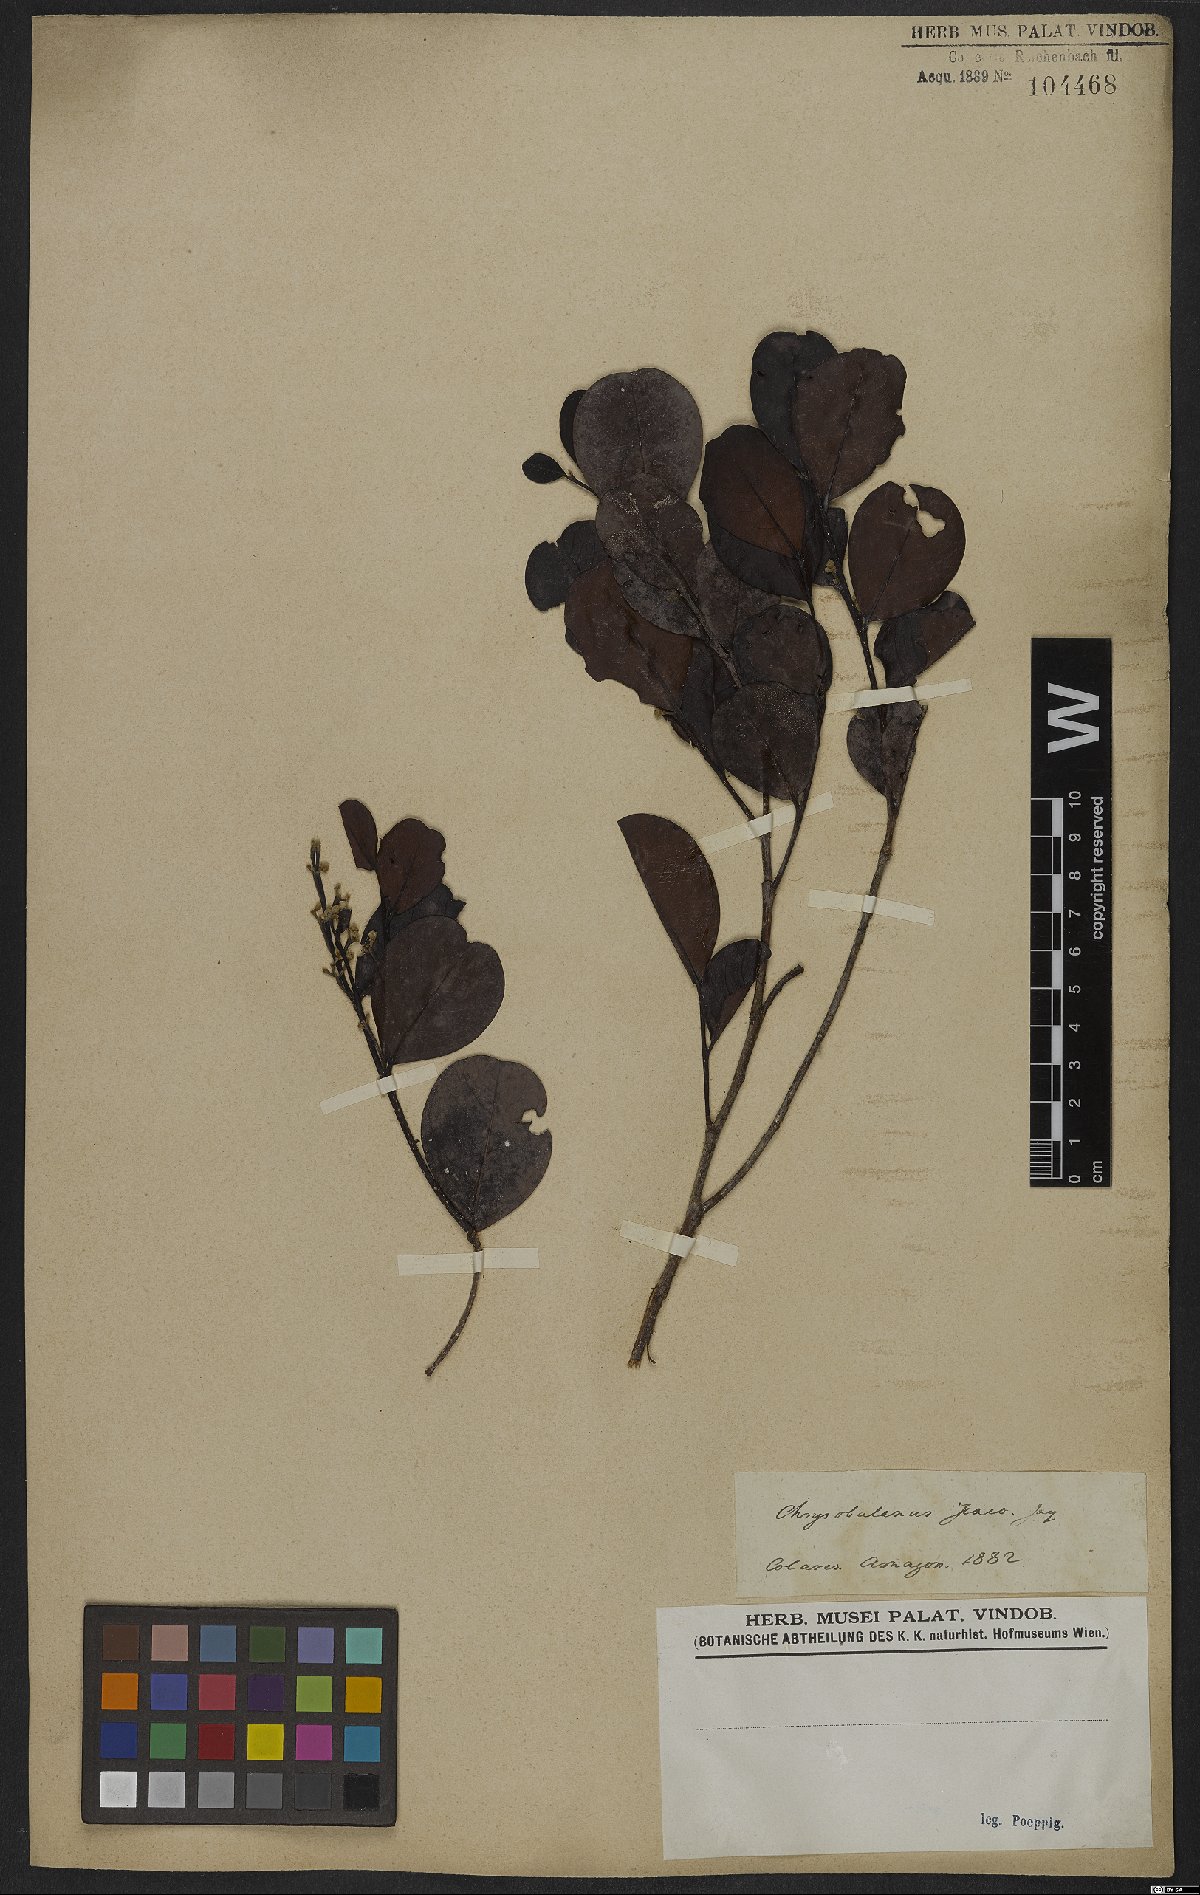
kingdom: Plantae
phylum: Tracheophyta
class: Magnoliopsida
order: Malpighiales
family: Chrysobalanaceae
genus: Chrysobalanus
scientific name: Chrysobalanus icaco
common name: Coco plum
